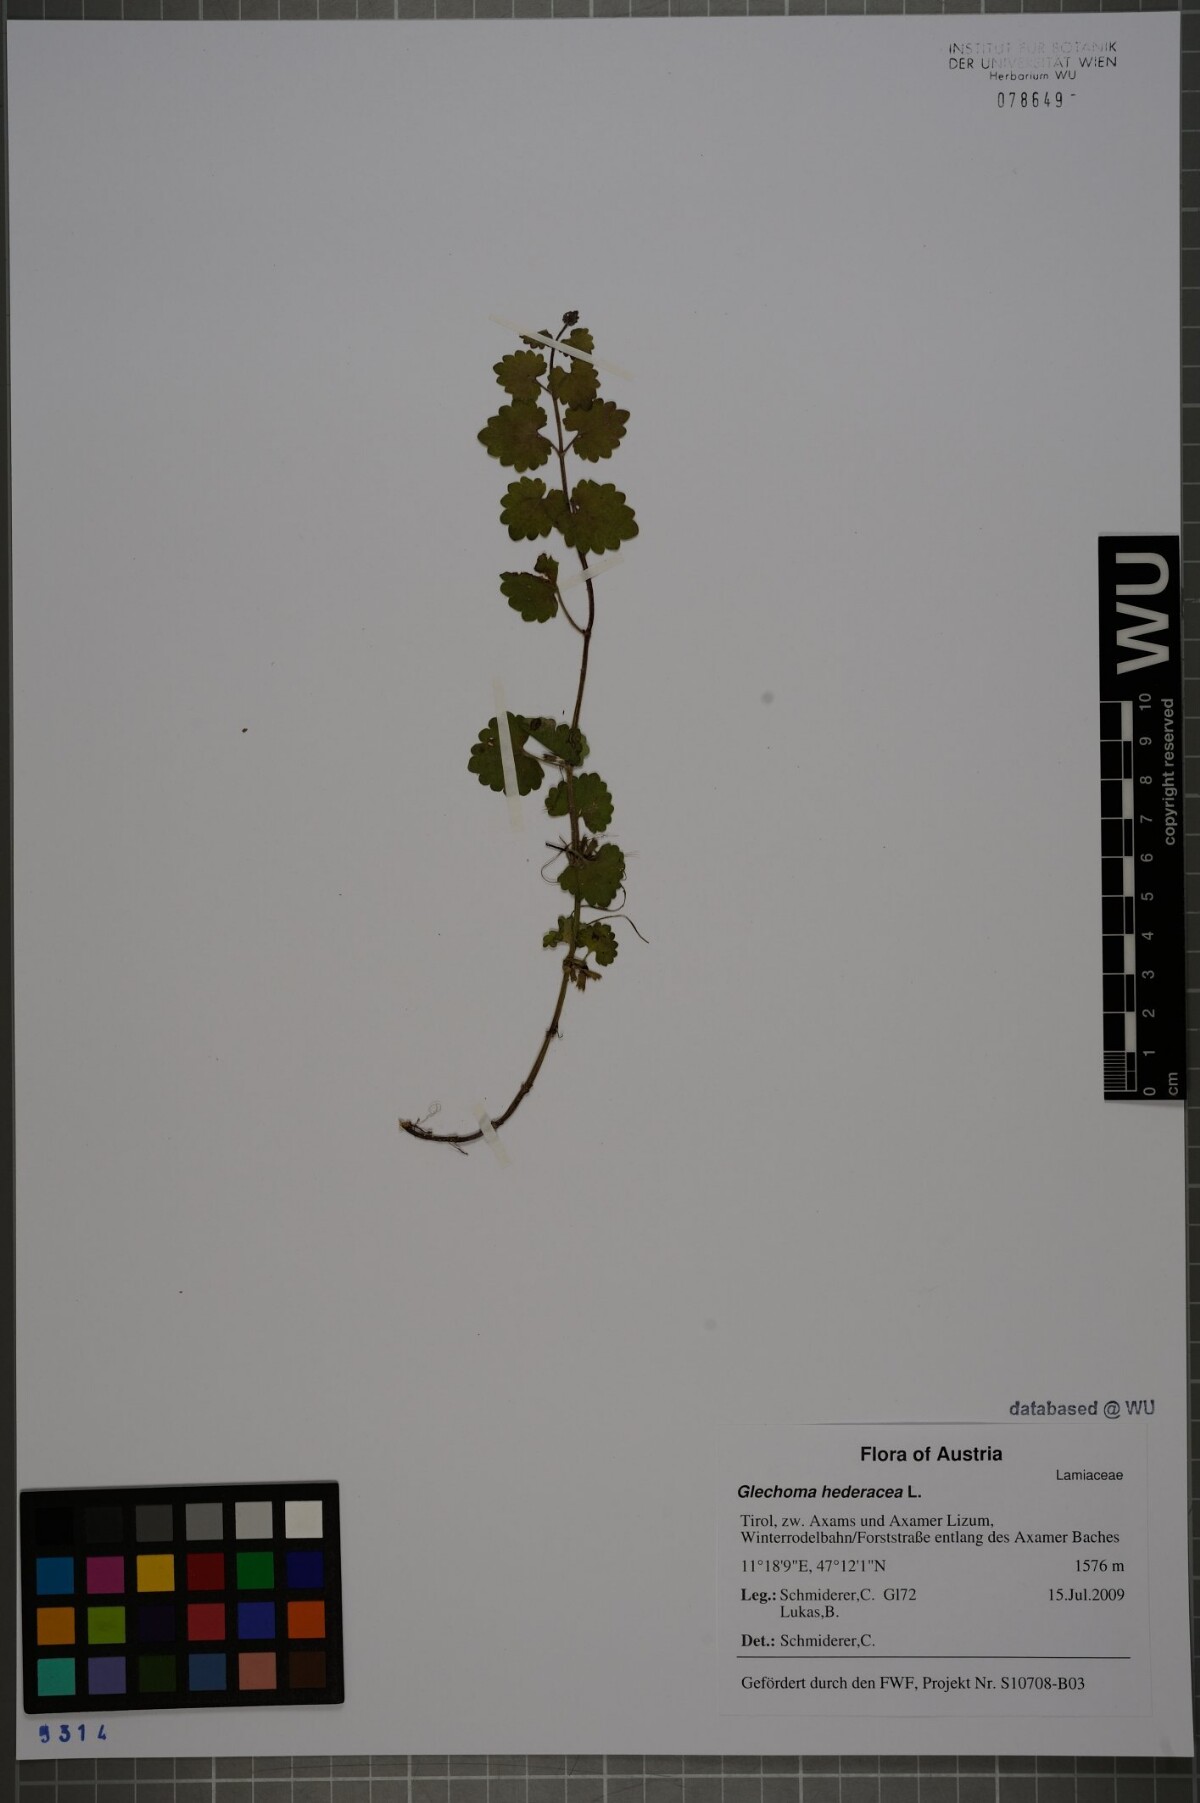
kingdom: Plantae
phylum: Tracheophyta
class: Magnoliopsida
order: Lamiales
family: Lamiaceae
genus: Glechoma
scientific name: Glechoma hederacea
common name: Ground ivy
